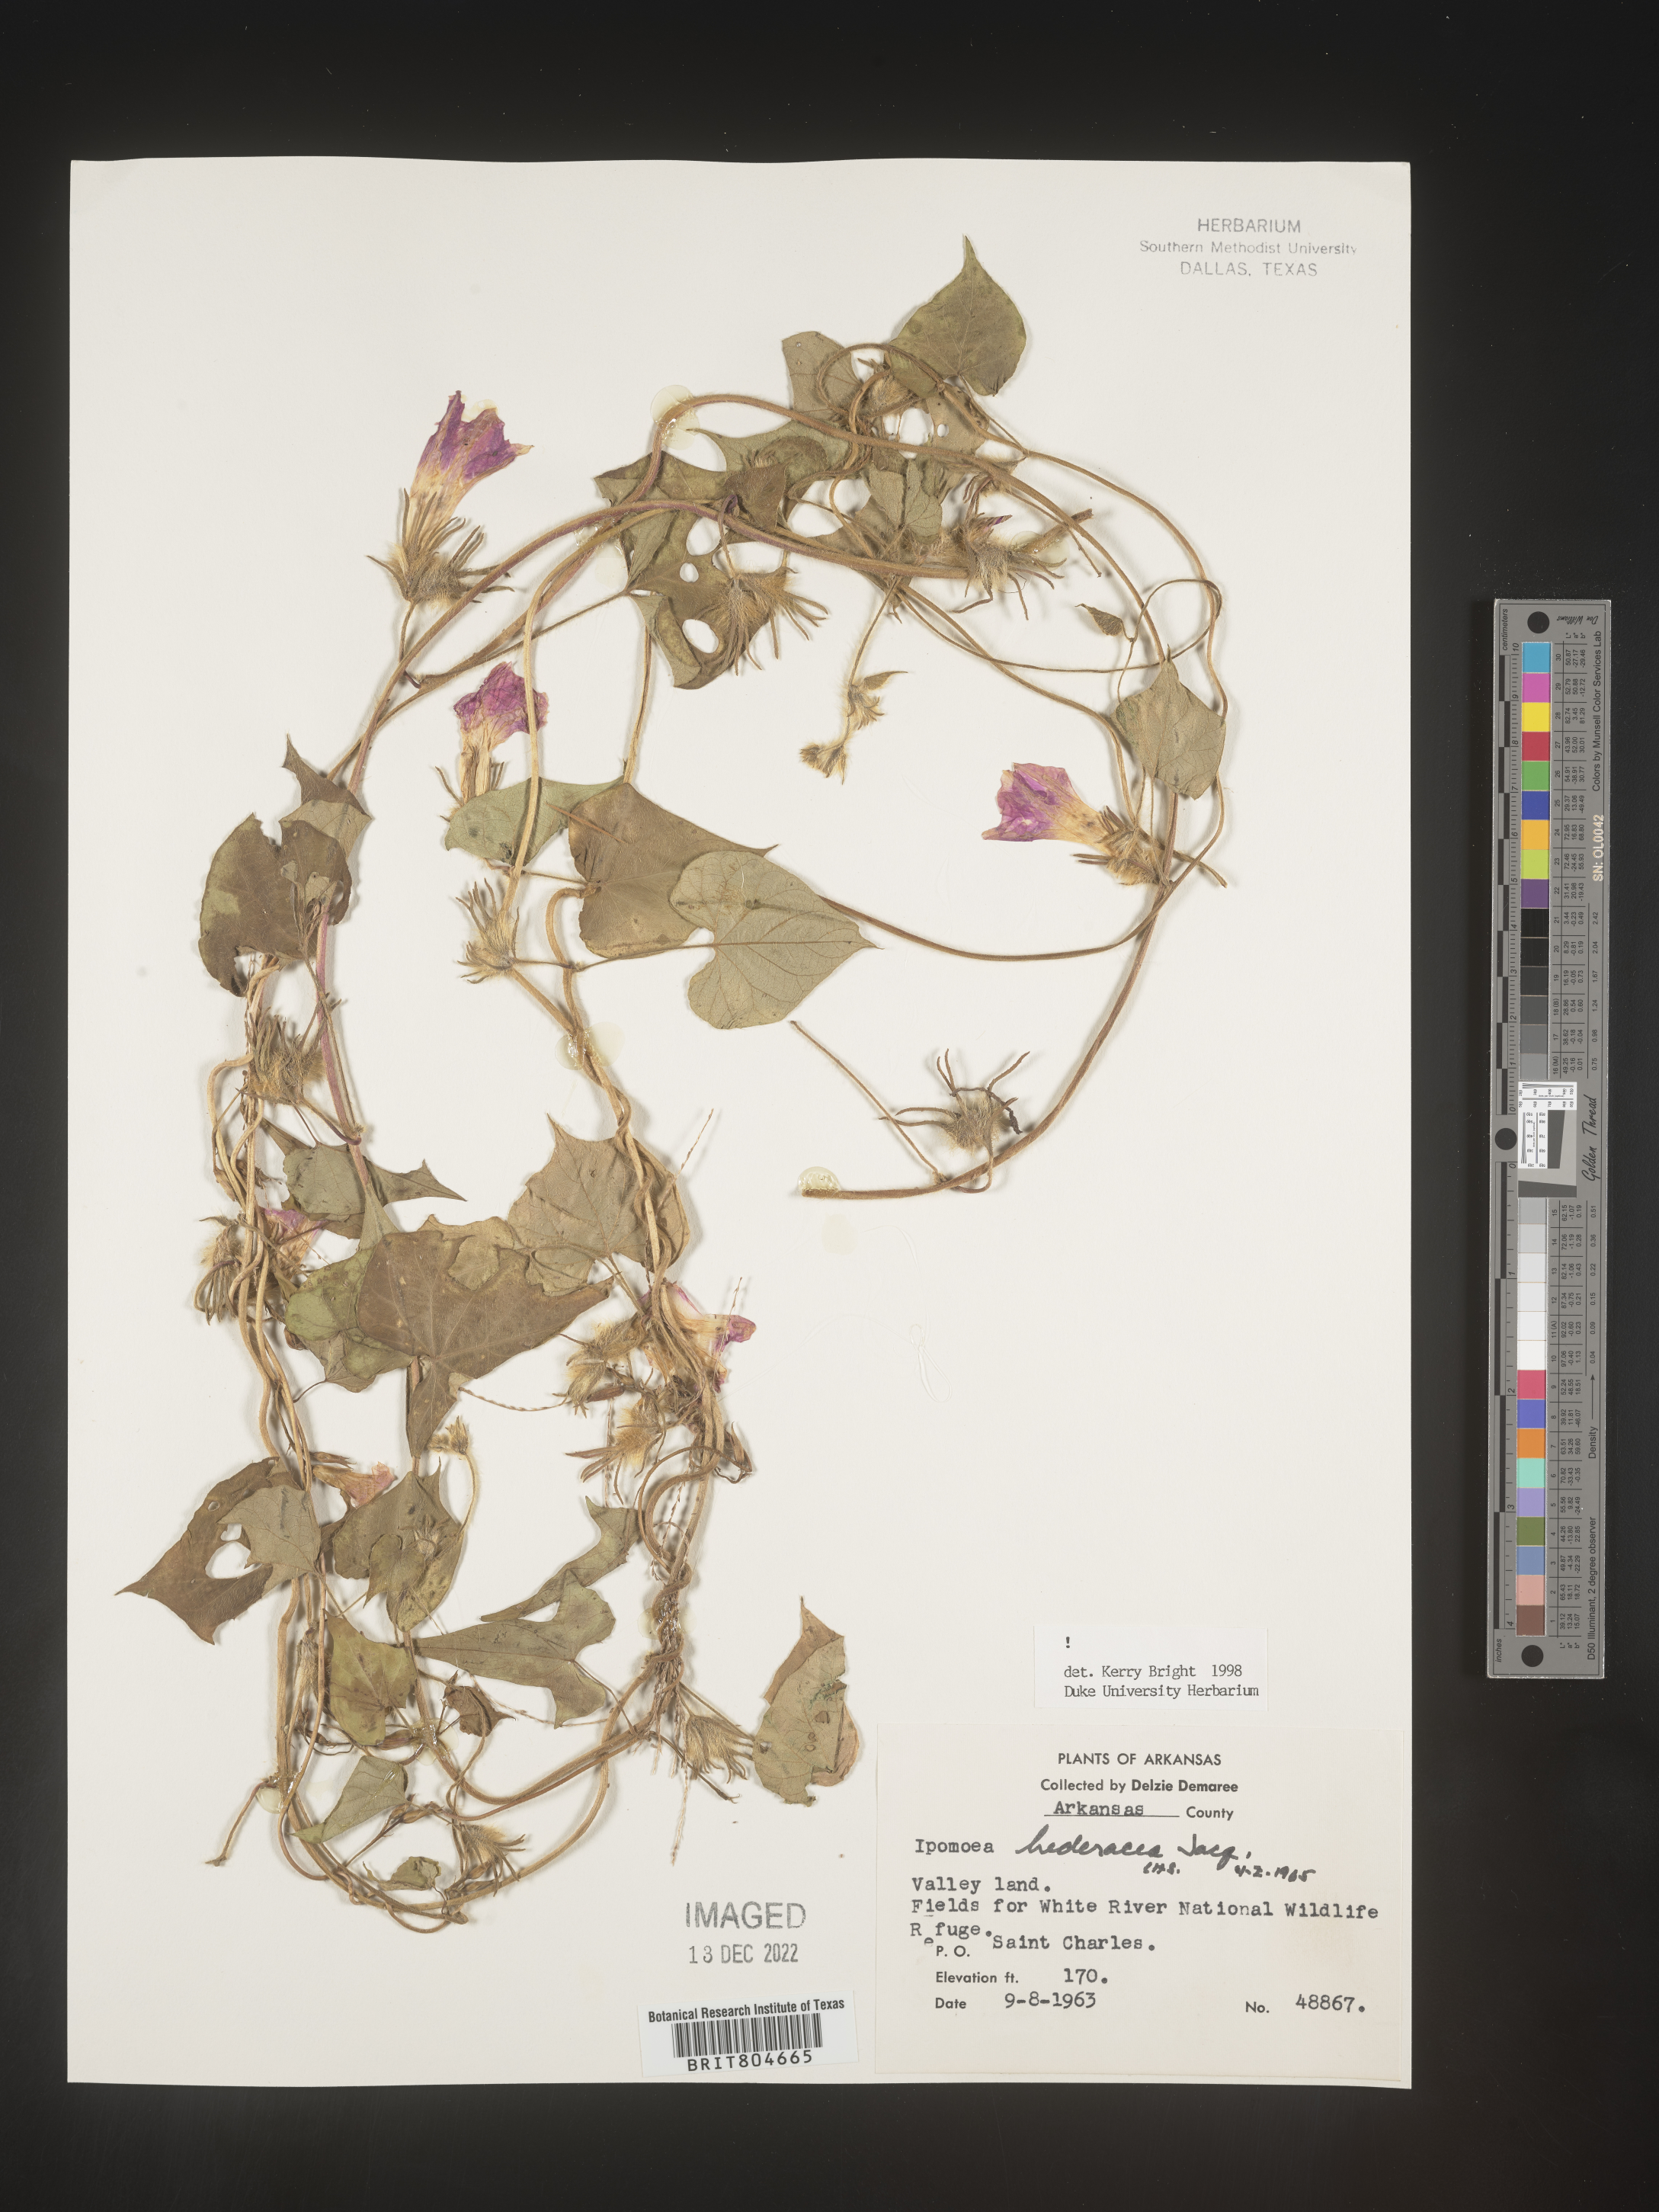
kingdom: Plantae
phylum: Tracheophyta
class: Magnoliopsida
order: Solanales
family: Convolvulaceae
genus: Ipomoea
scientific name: Ipomoea hederacea
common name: Ivy-leaved morning-glory
